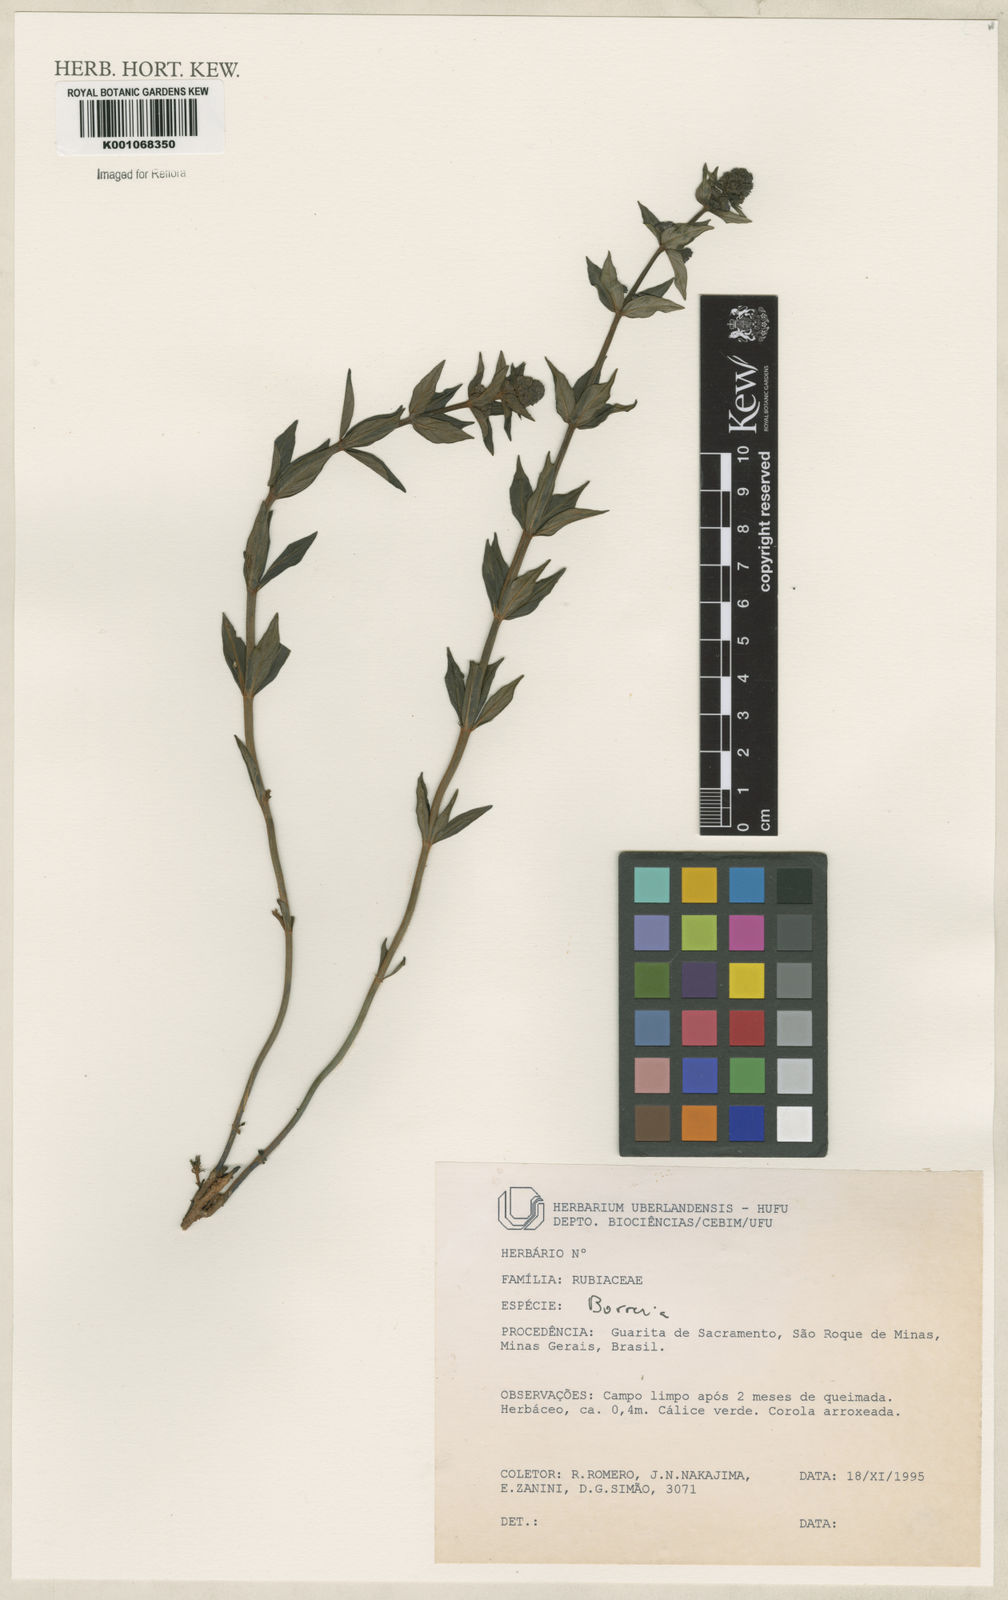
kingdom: Plantae
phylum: Tracheophyta
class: Magnoliopsida
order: Gentianales
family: Rubiaceae
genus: Spermacoce
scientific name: Spermacoce
